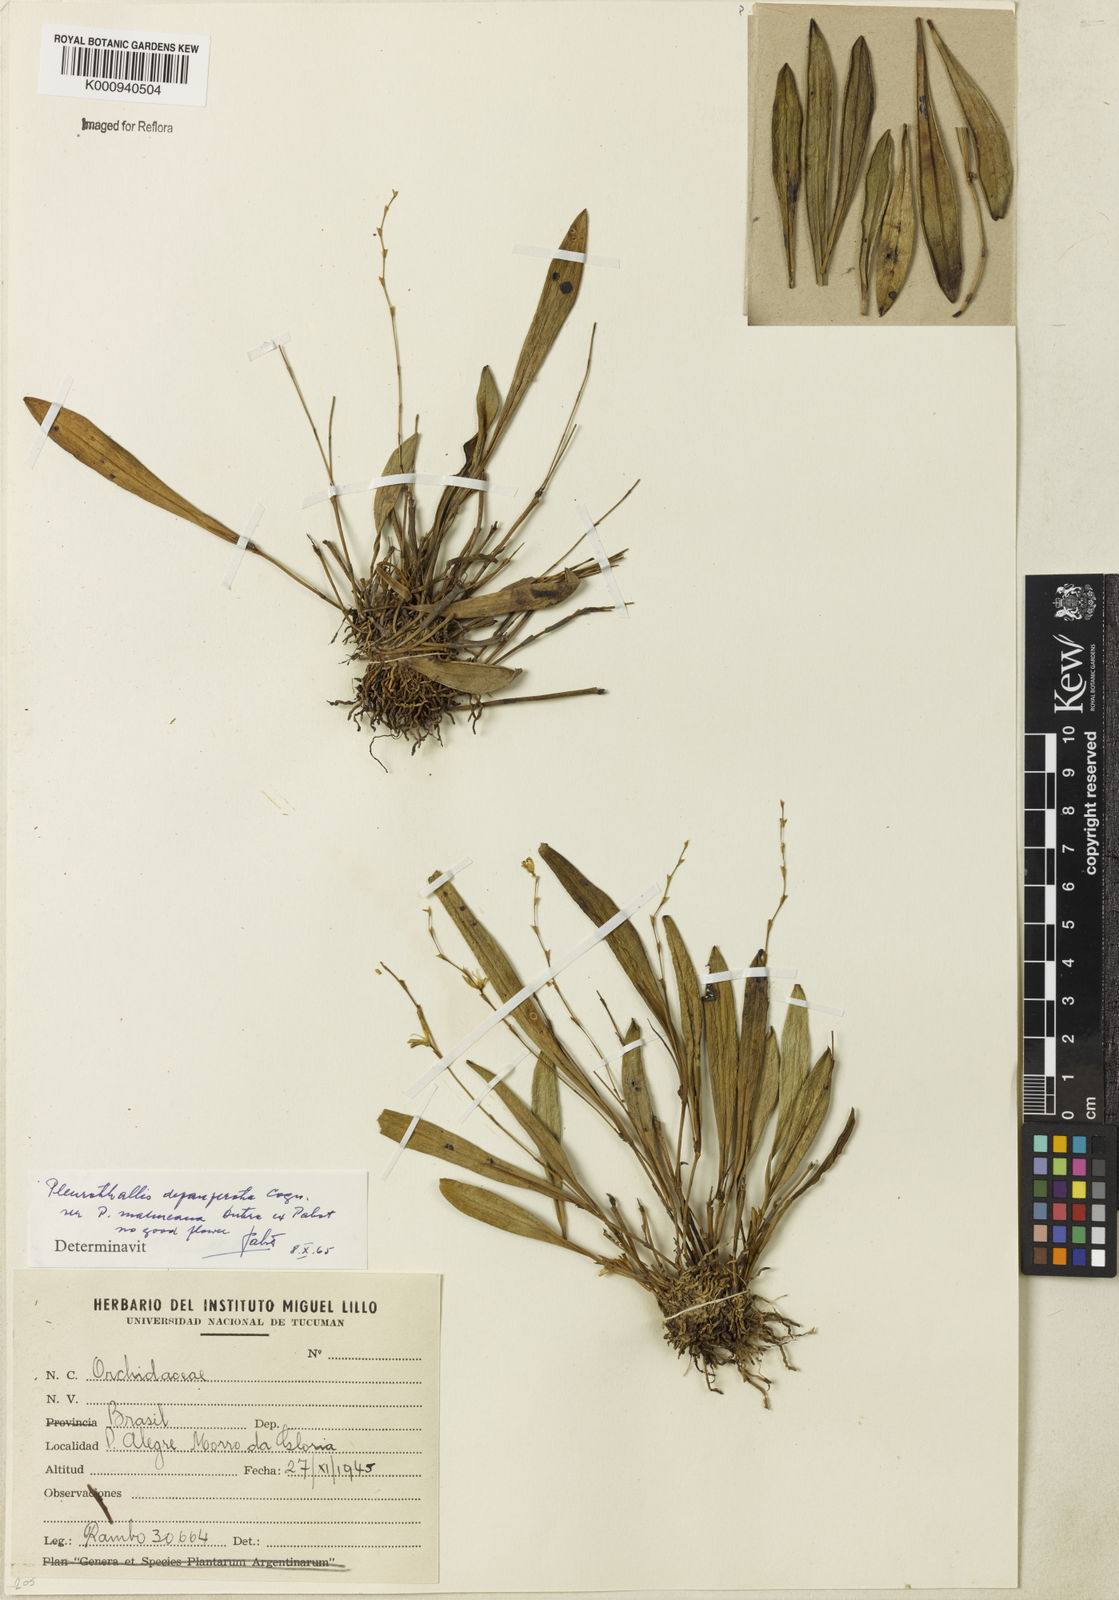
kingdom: Plantae
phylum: Tracheophyta
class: Liliopsida
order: Asparagales
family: Orchidaceae
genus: Anathallis
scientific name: Anathallis
